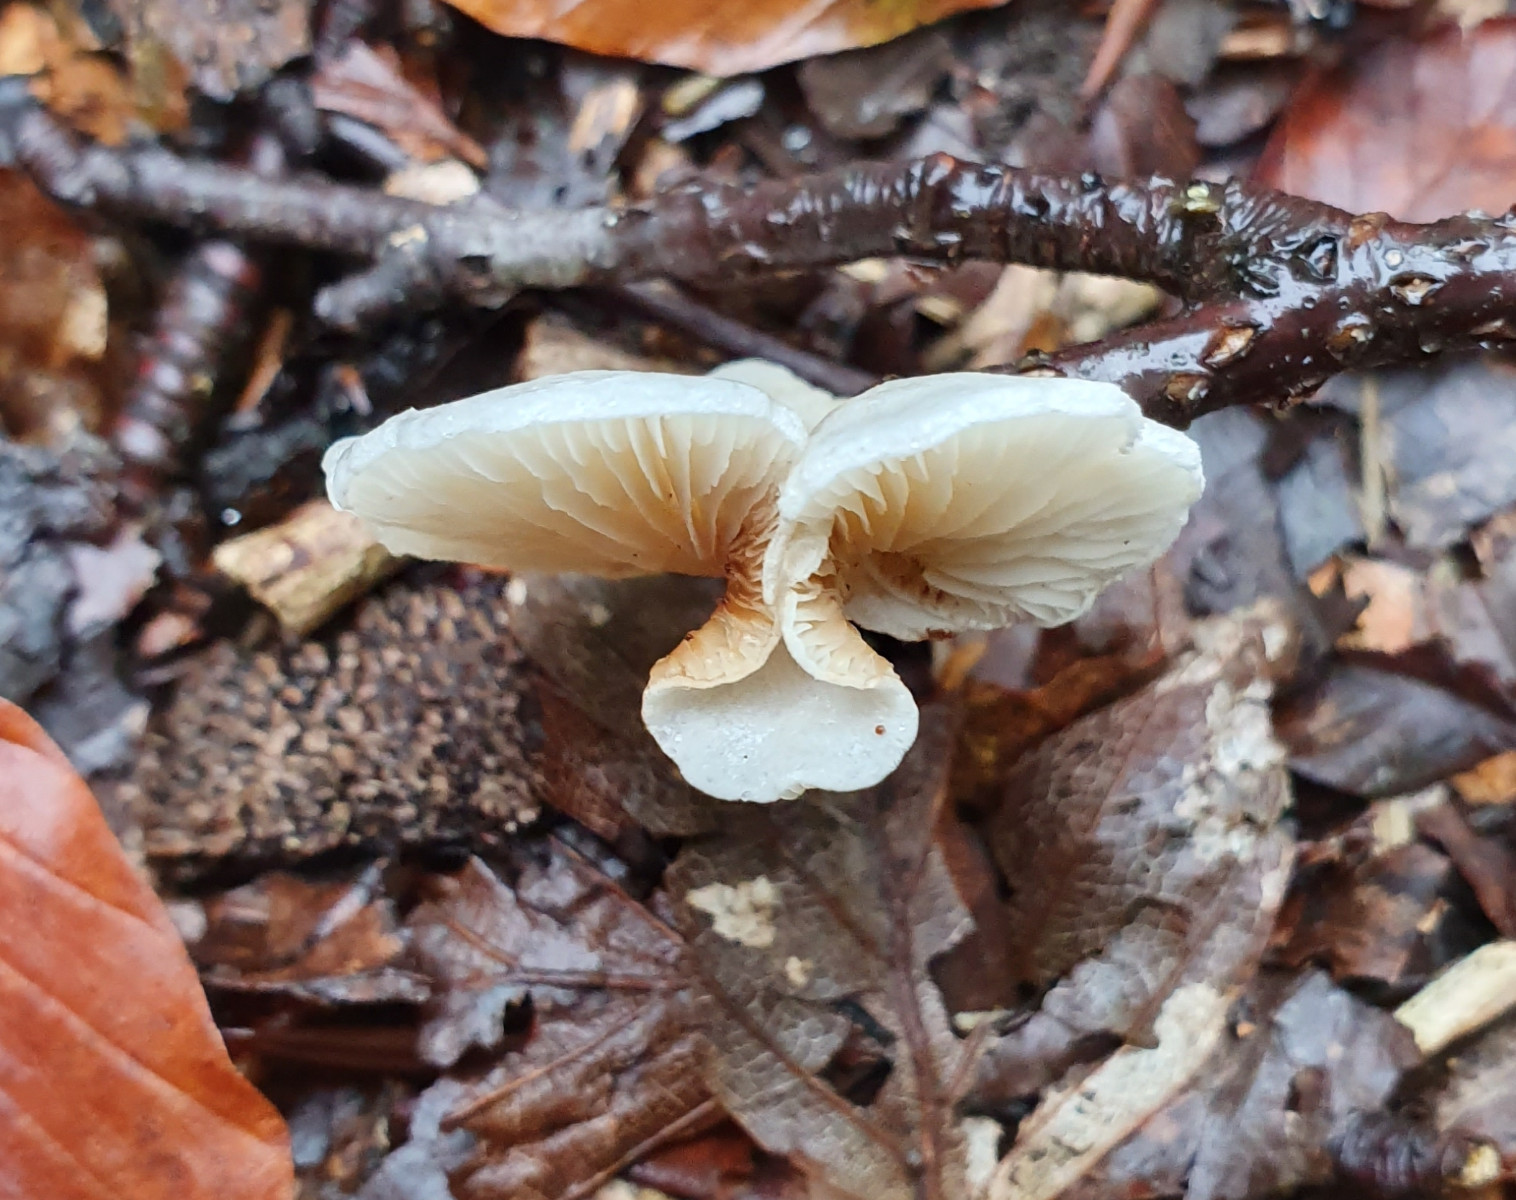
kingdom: Fungi
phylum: Basidiomycota
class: Agaricomycetes
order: Agaricales
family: Crepidotaceae
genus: Crepidotus
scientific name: Crepidotus
